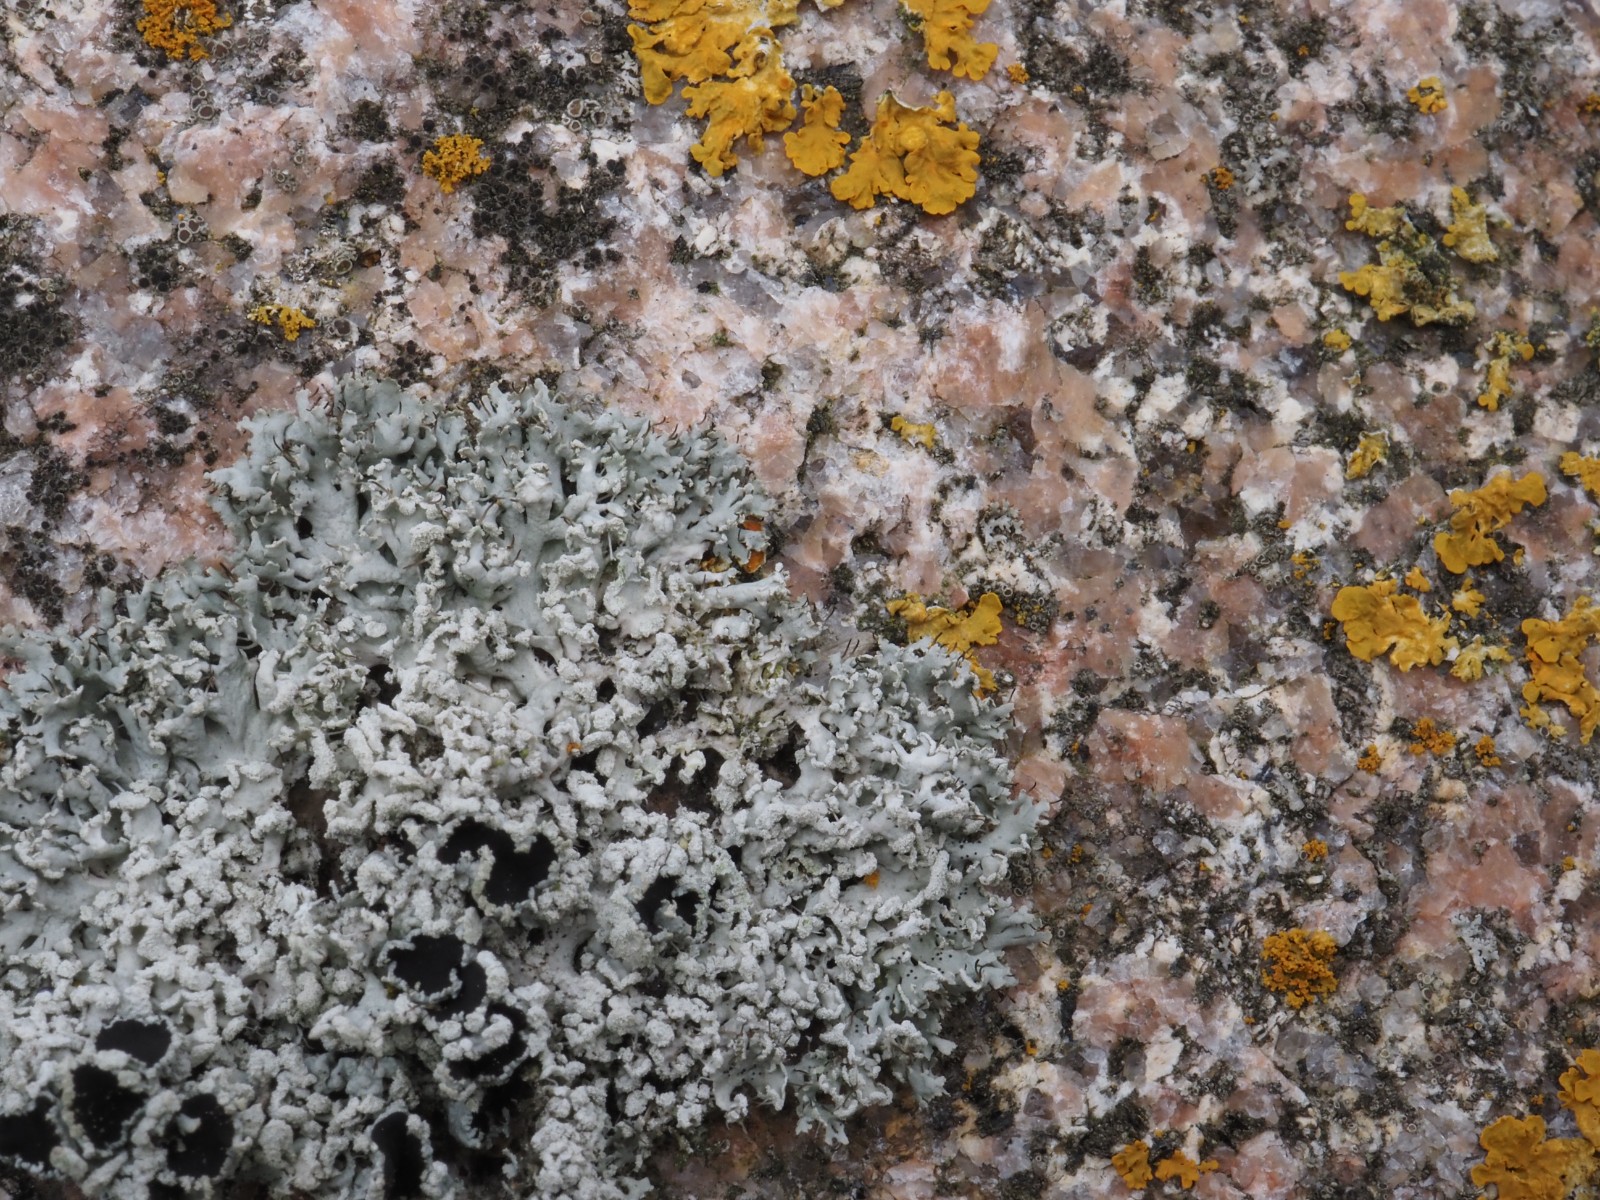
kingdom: Fungi
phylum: Ascomycota
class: Lecanoromycetes
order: Caliciales
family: Physciaceae
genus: Physcia
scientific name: Physcia tenella
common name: spæd rosetlav
